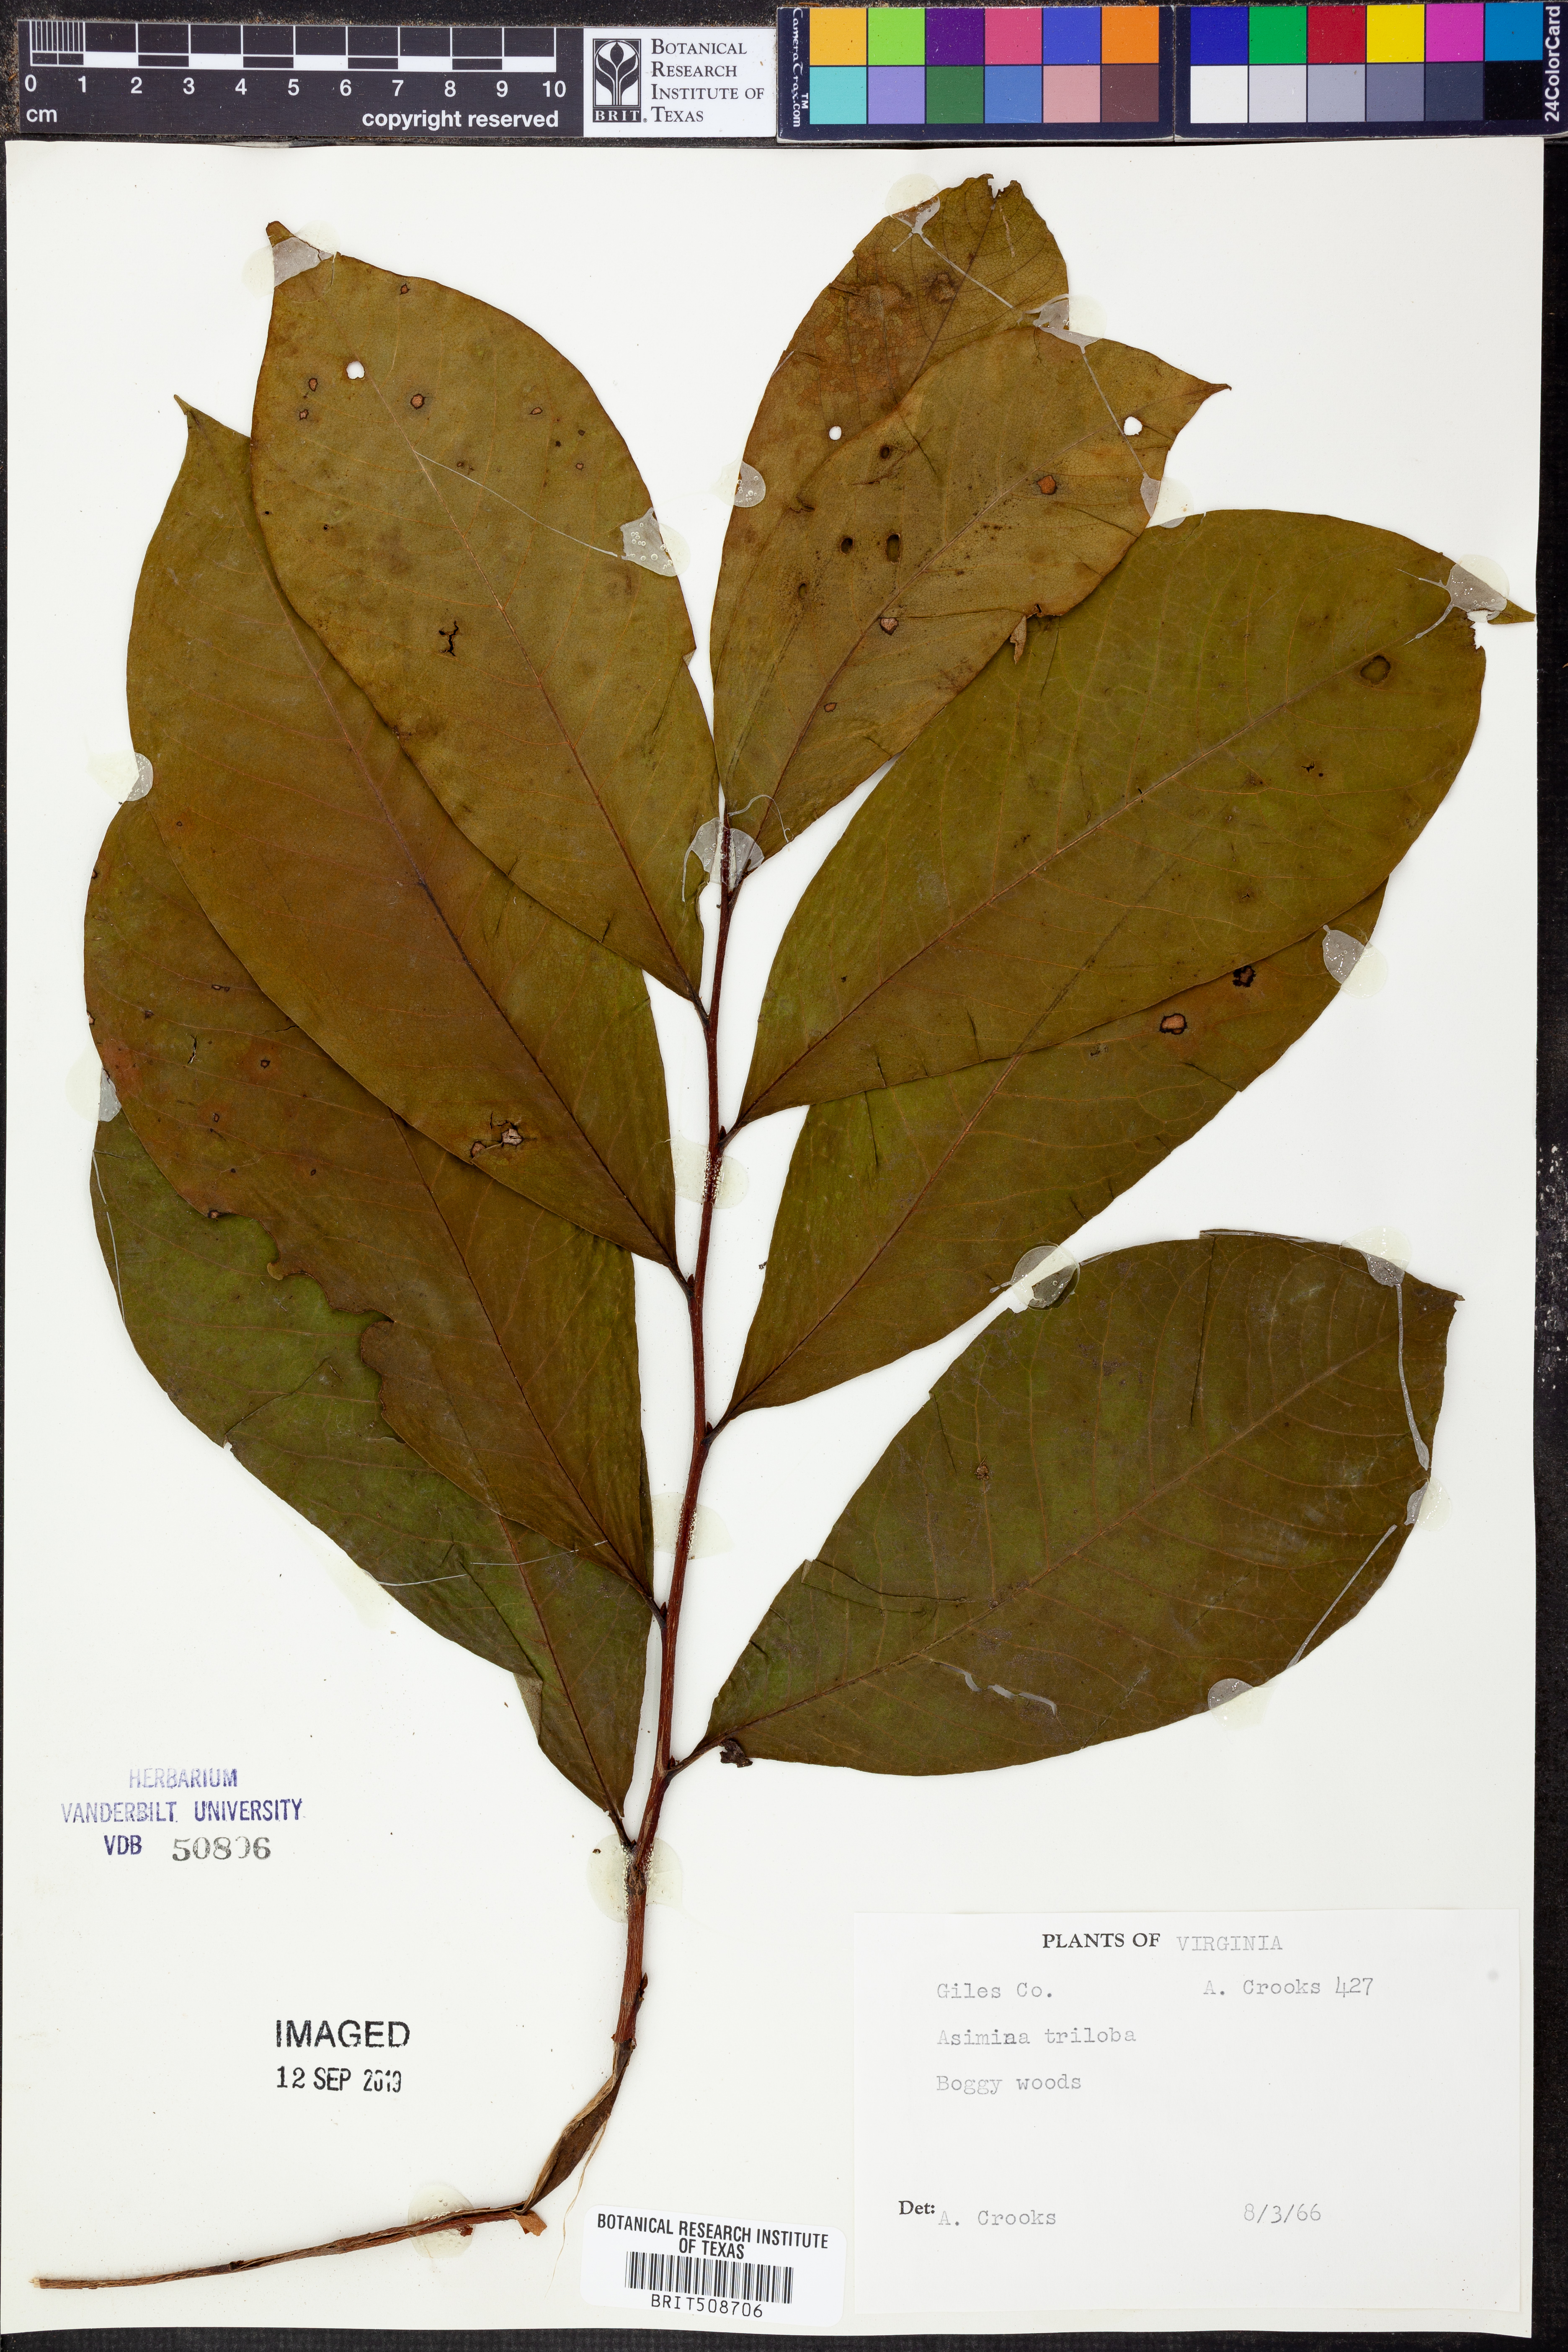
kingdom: Plantae
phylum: Tracheophyta
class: Magnoliopsida
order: Magnoliales
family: Annonaceae
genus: Asimina
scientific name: Asimina triloba
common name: Dog-banana
